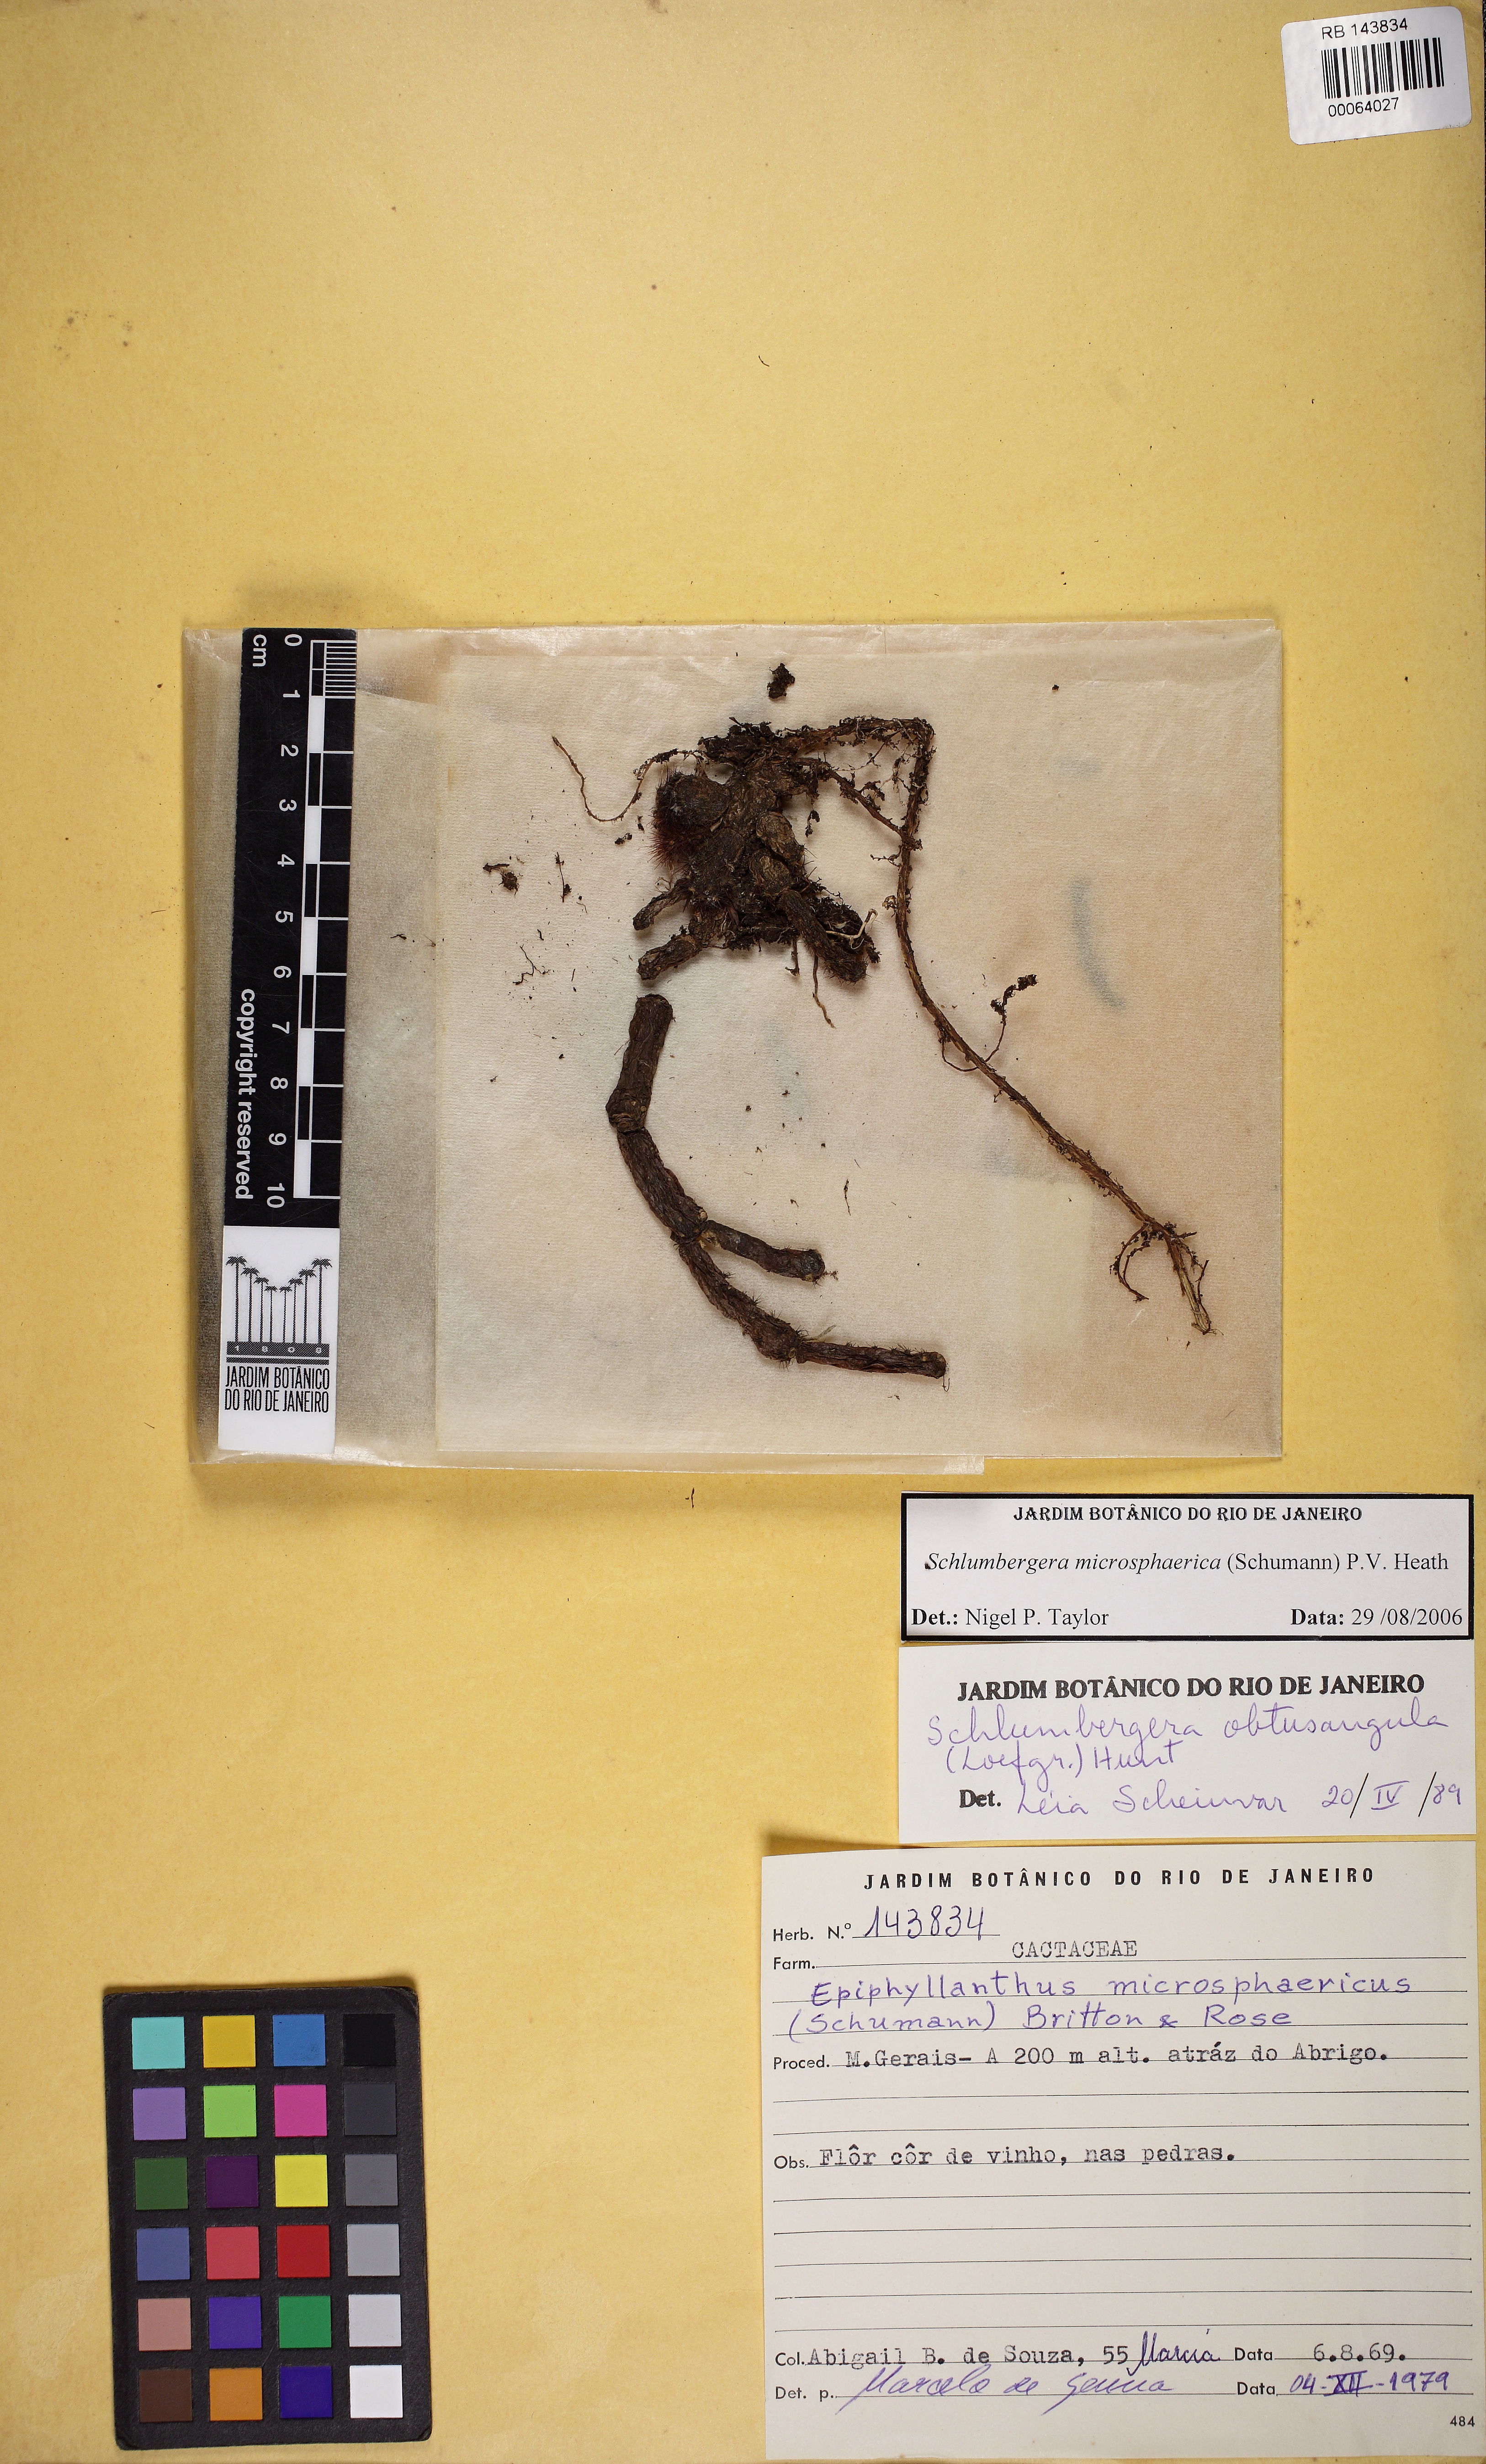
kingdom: Plantae
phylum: Tracheophyta
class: Magnoliopsida
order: Caryophyllales
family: Cactaceae
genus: Schlumbergera
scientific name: Schlumbergera microsphaerica
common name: Christmas cactus
